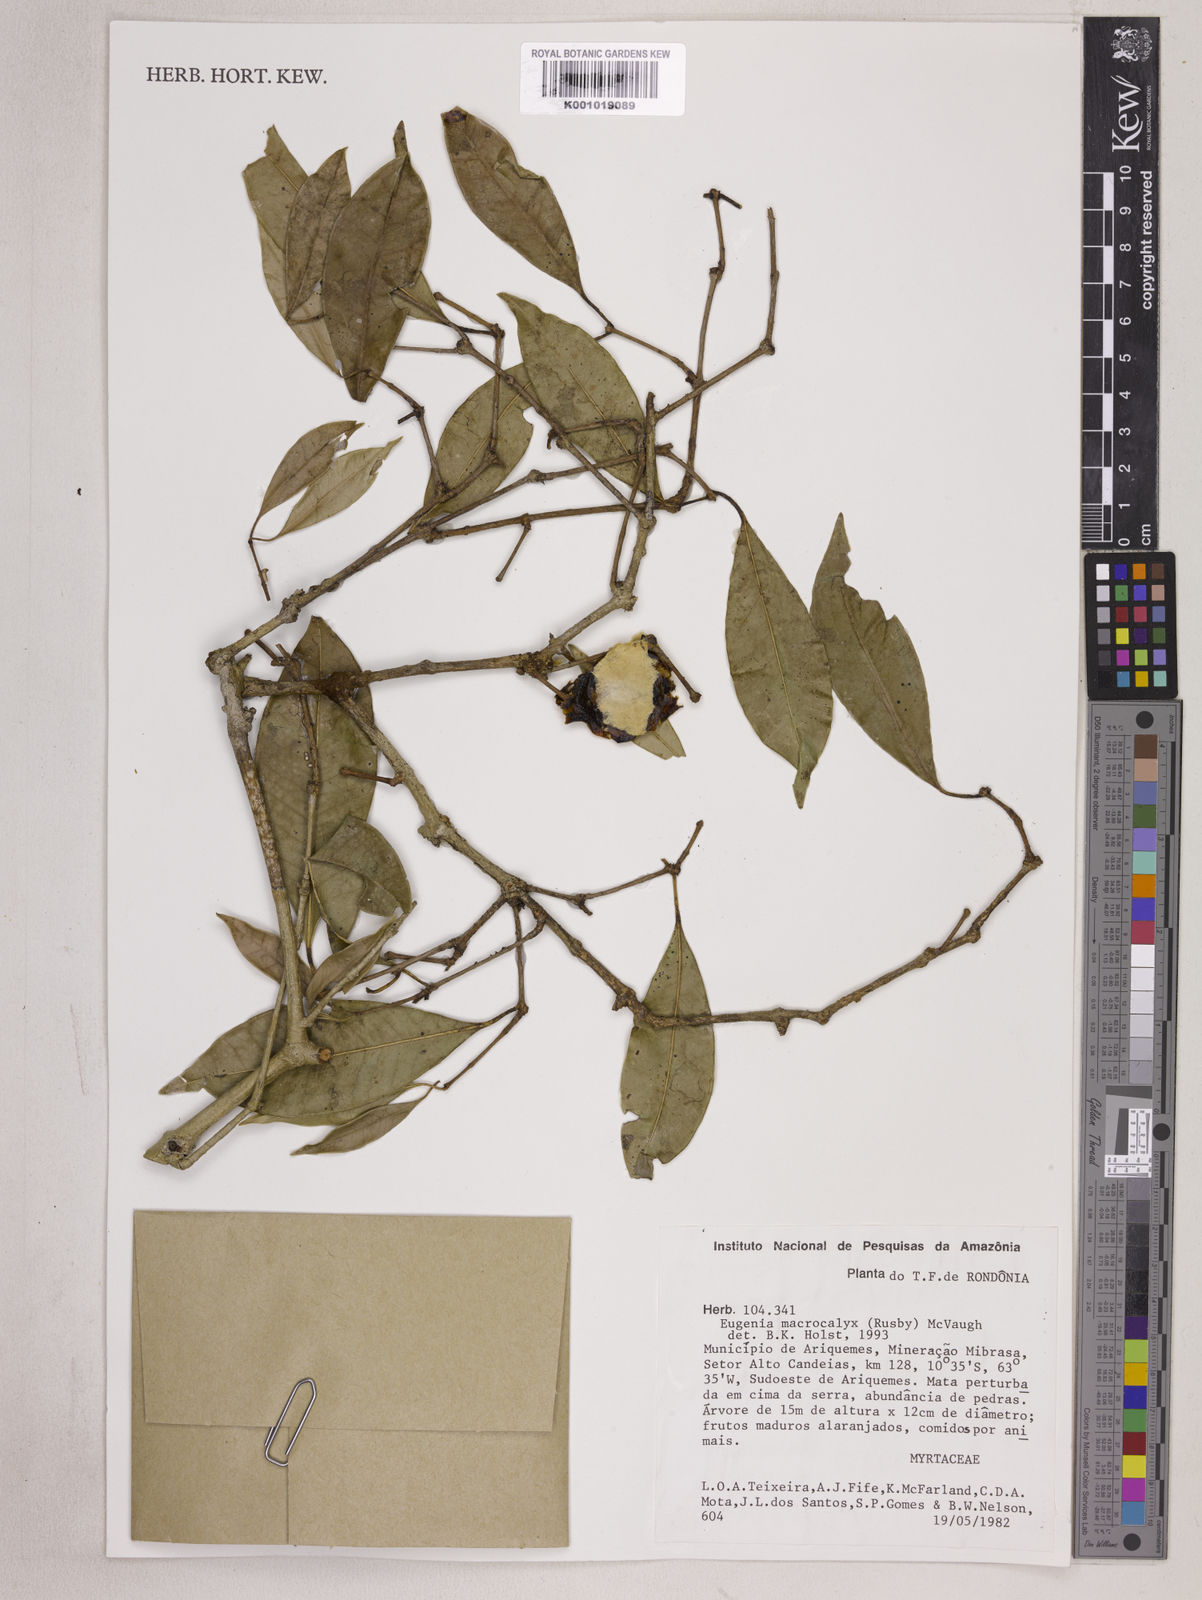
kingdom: Plantae
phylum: Tracheophyta
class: Magnoliopsida
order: Myrtales
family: Myrtaceae
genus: Eugenia
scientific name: Eugenia wentii
